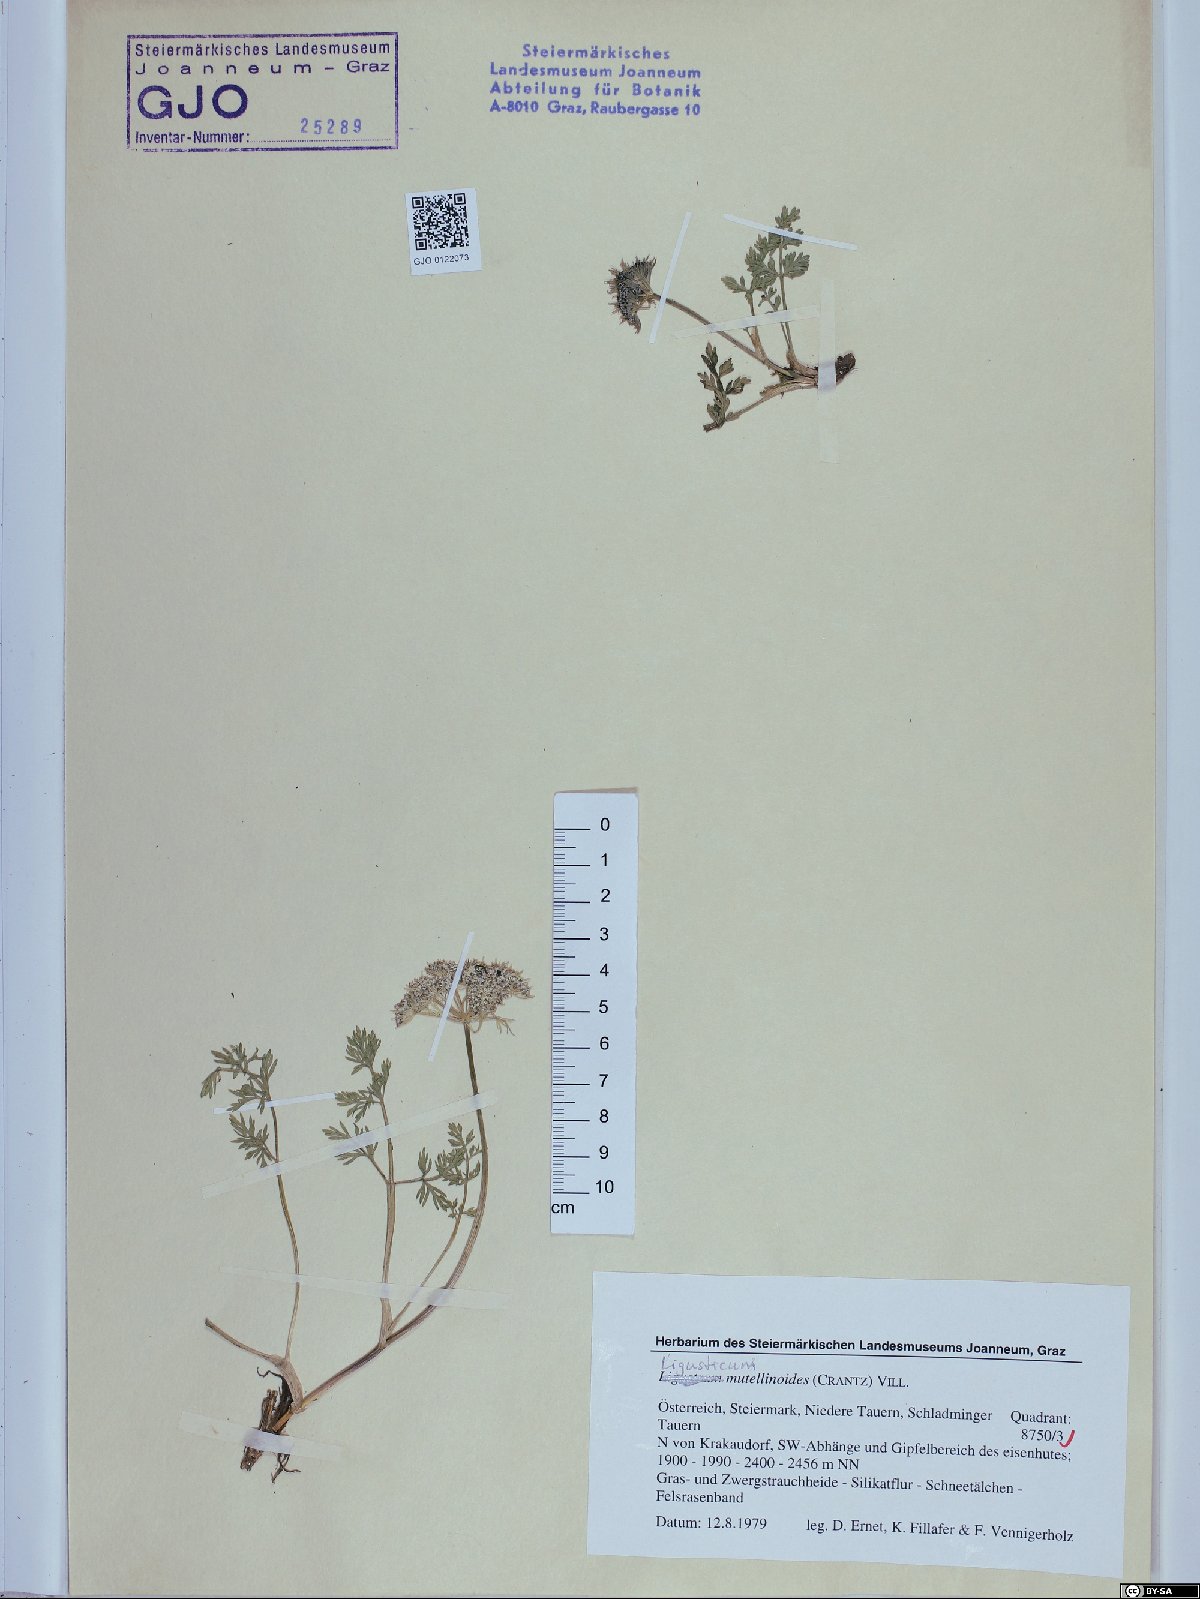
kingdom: Plantae
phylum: Tracheophyta
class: Magnoliopsida
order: Apiales
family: Apiaceae
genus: Pachypleurum
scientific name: Pachypleurum mutellinoides
